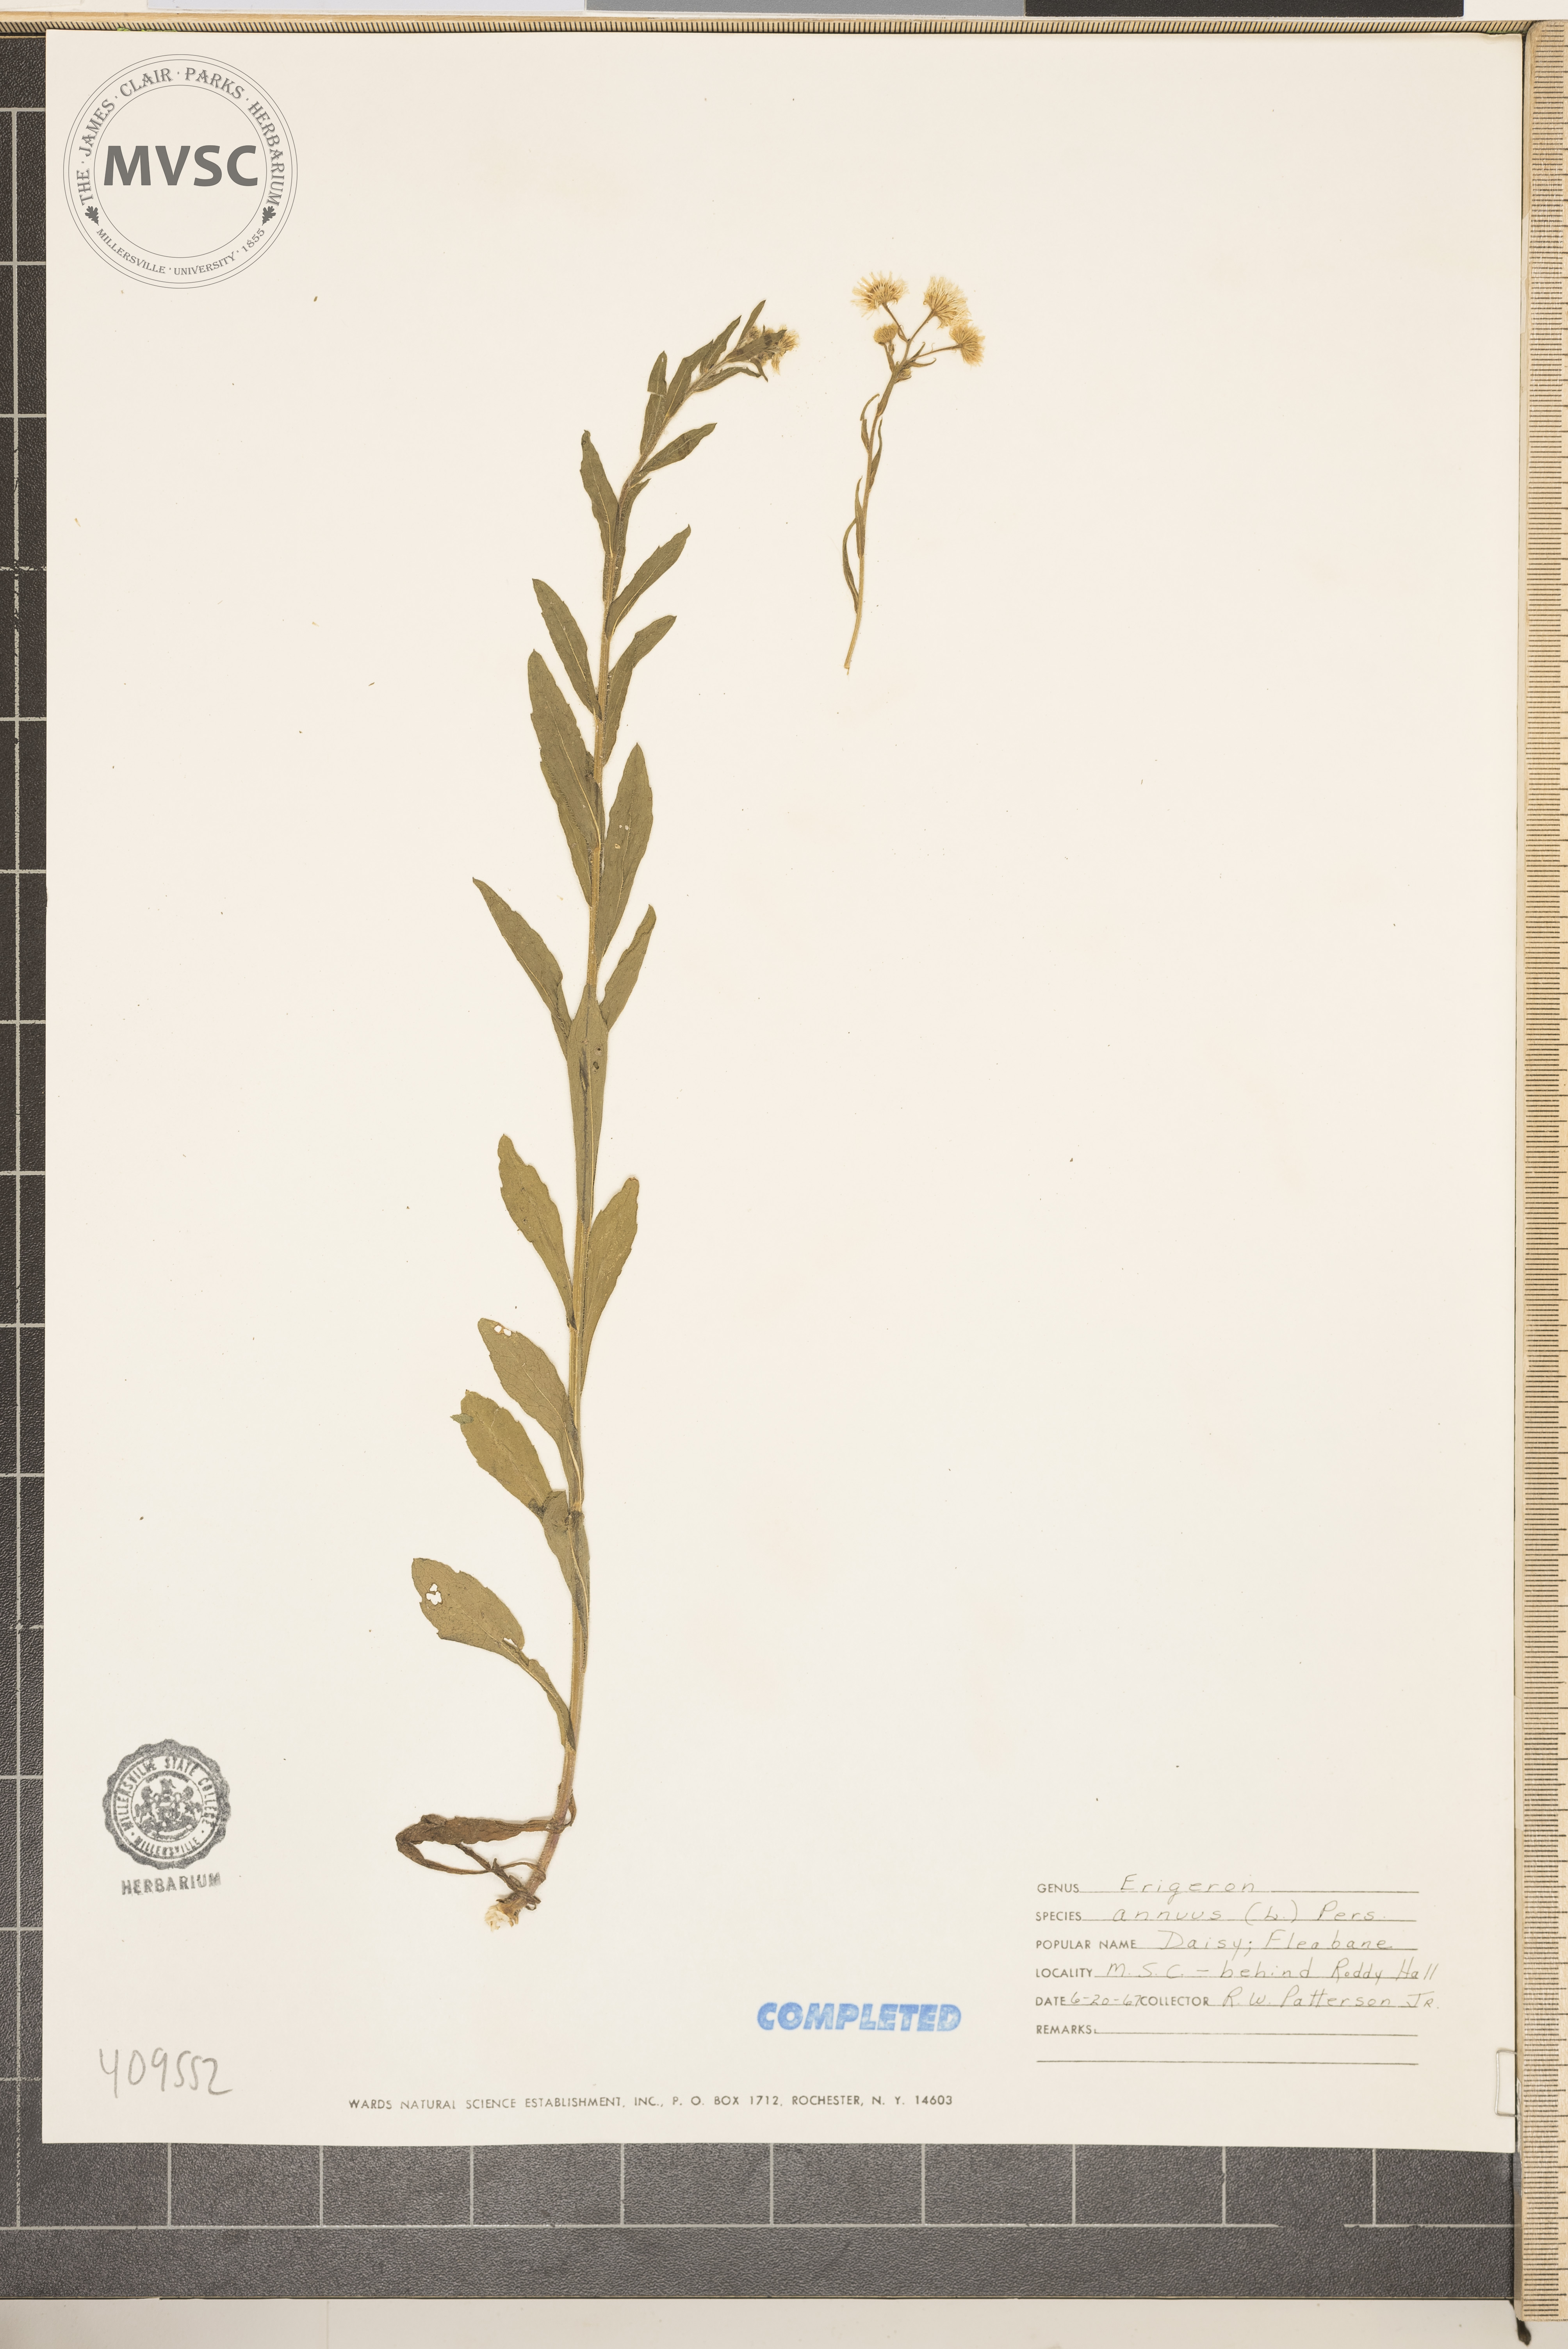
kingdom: Plantae
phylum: Tracheophyta
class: Magnoliopsida
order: Asterales
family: Asteraceae
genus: Erigeron
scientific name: Erigeron annuus
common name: Tall fleabane
